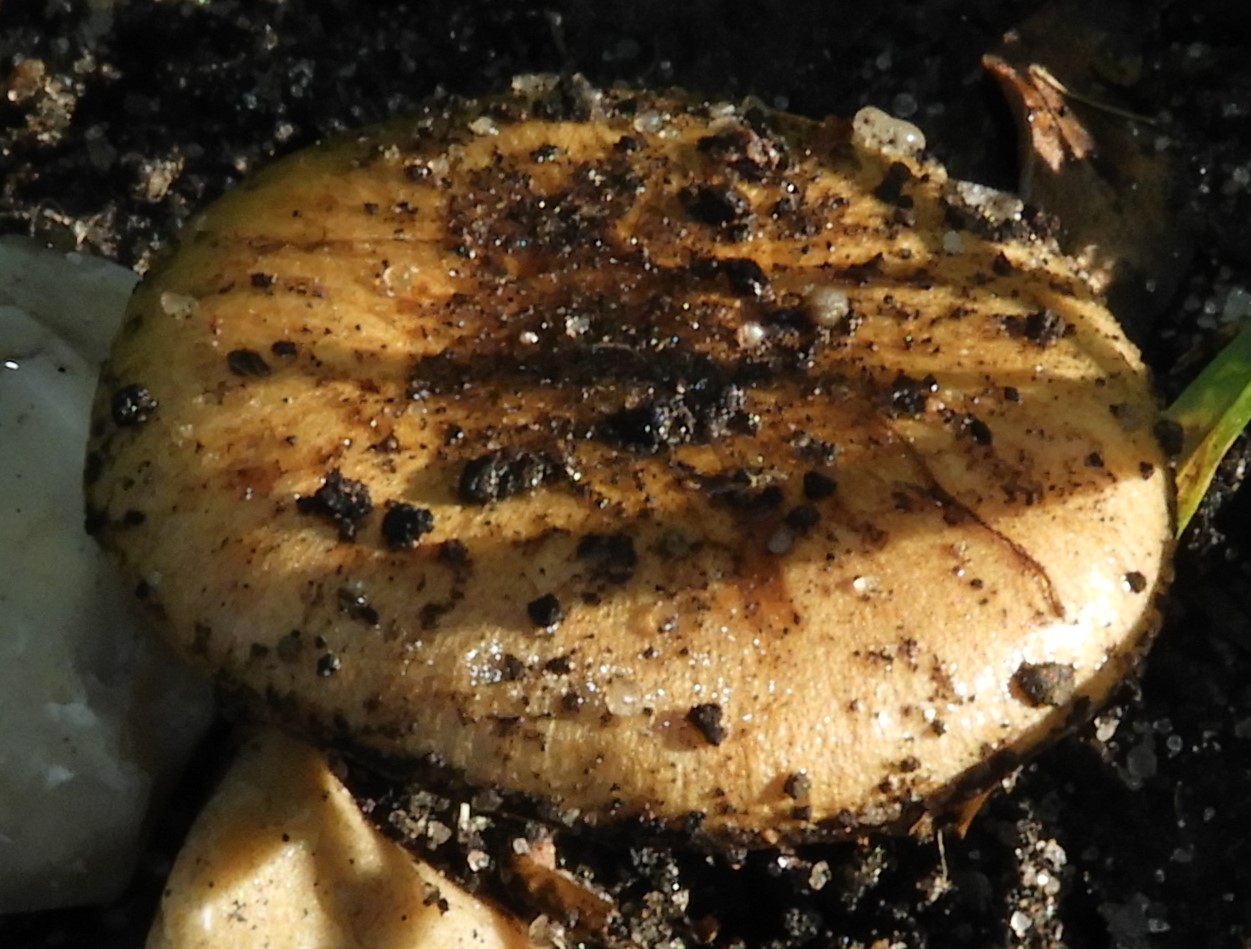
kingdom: Fungi
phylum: Basidiomycota
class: Agaricomycetes
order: Agaricales
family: Strophariaceae
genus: Pholiota
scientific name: Pholiota carbonaria
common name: kul-skælhat
